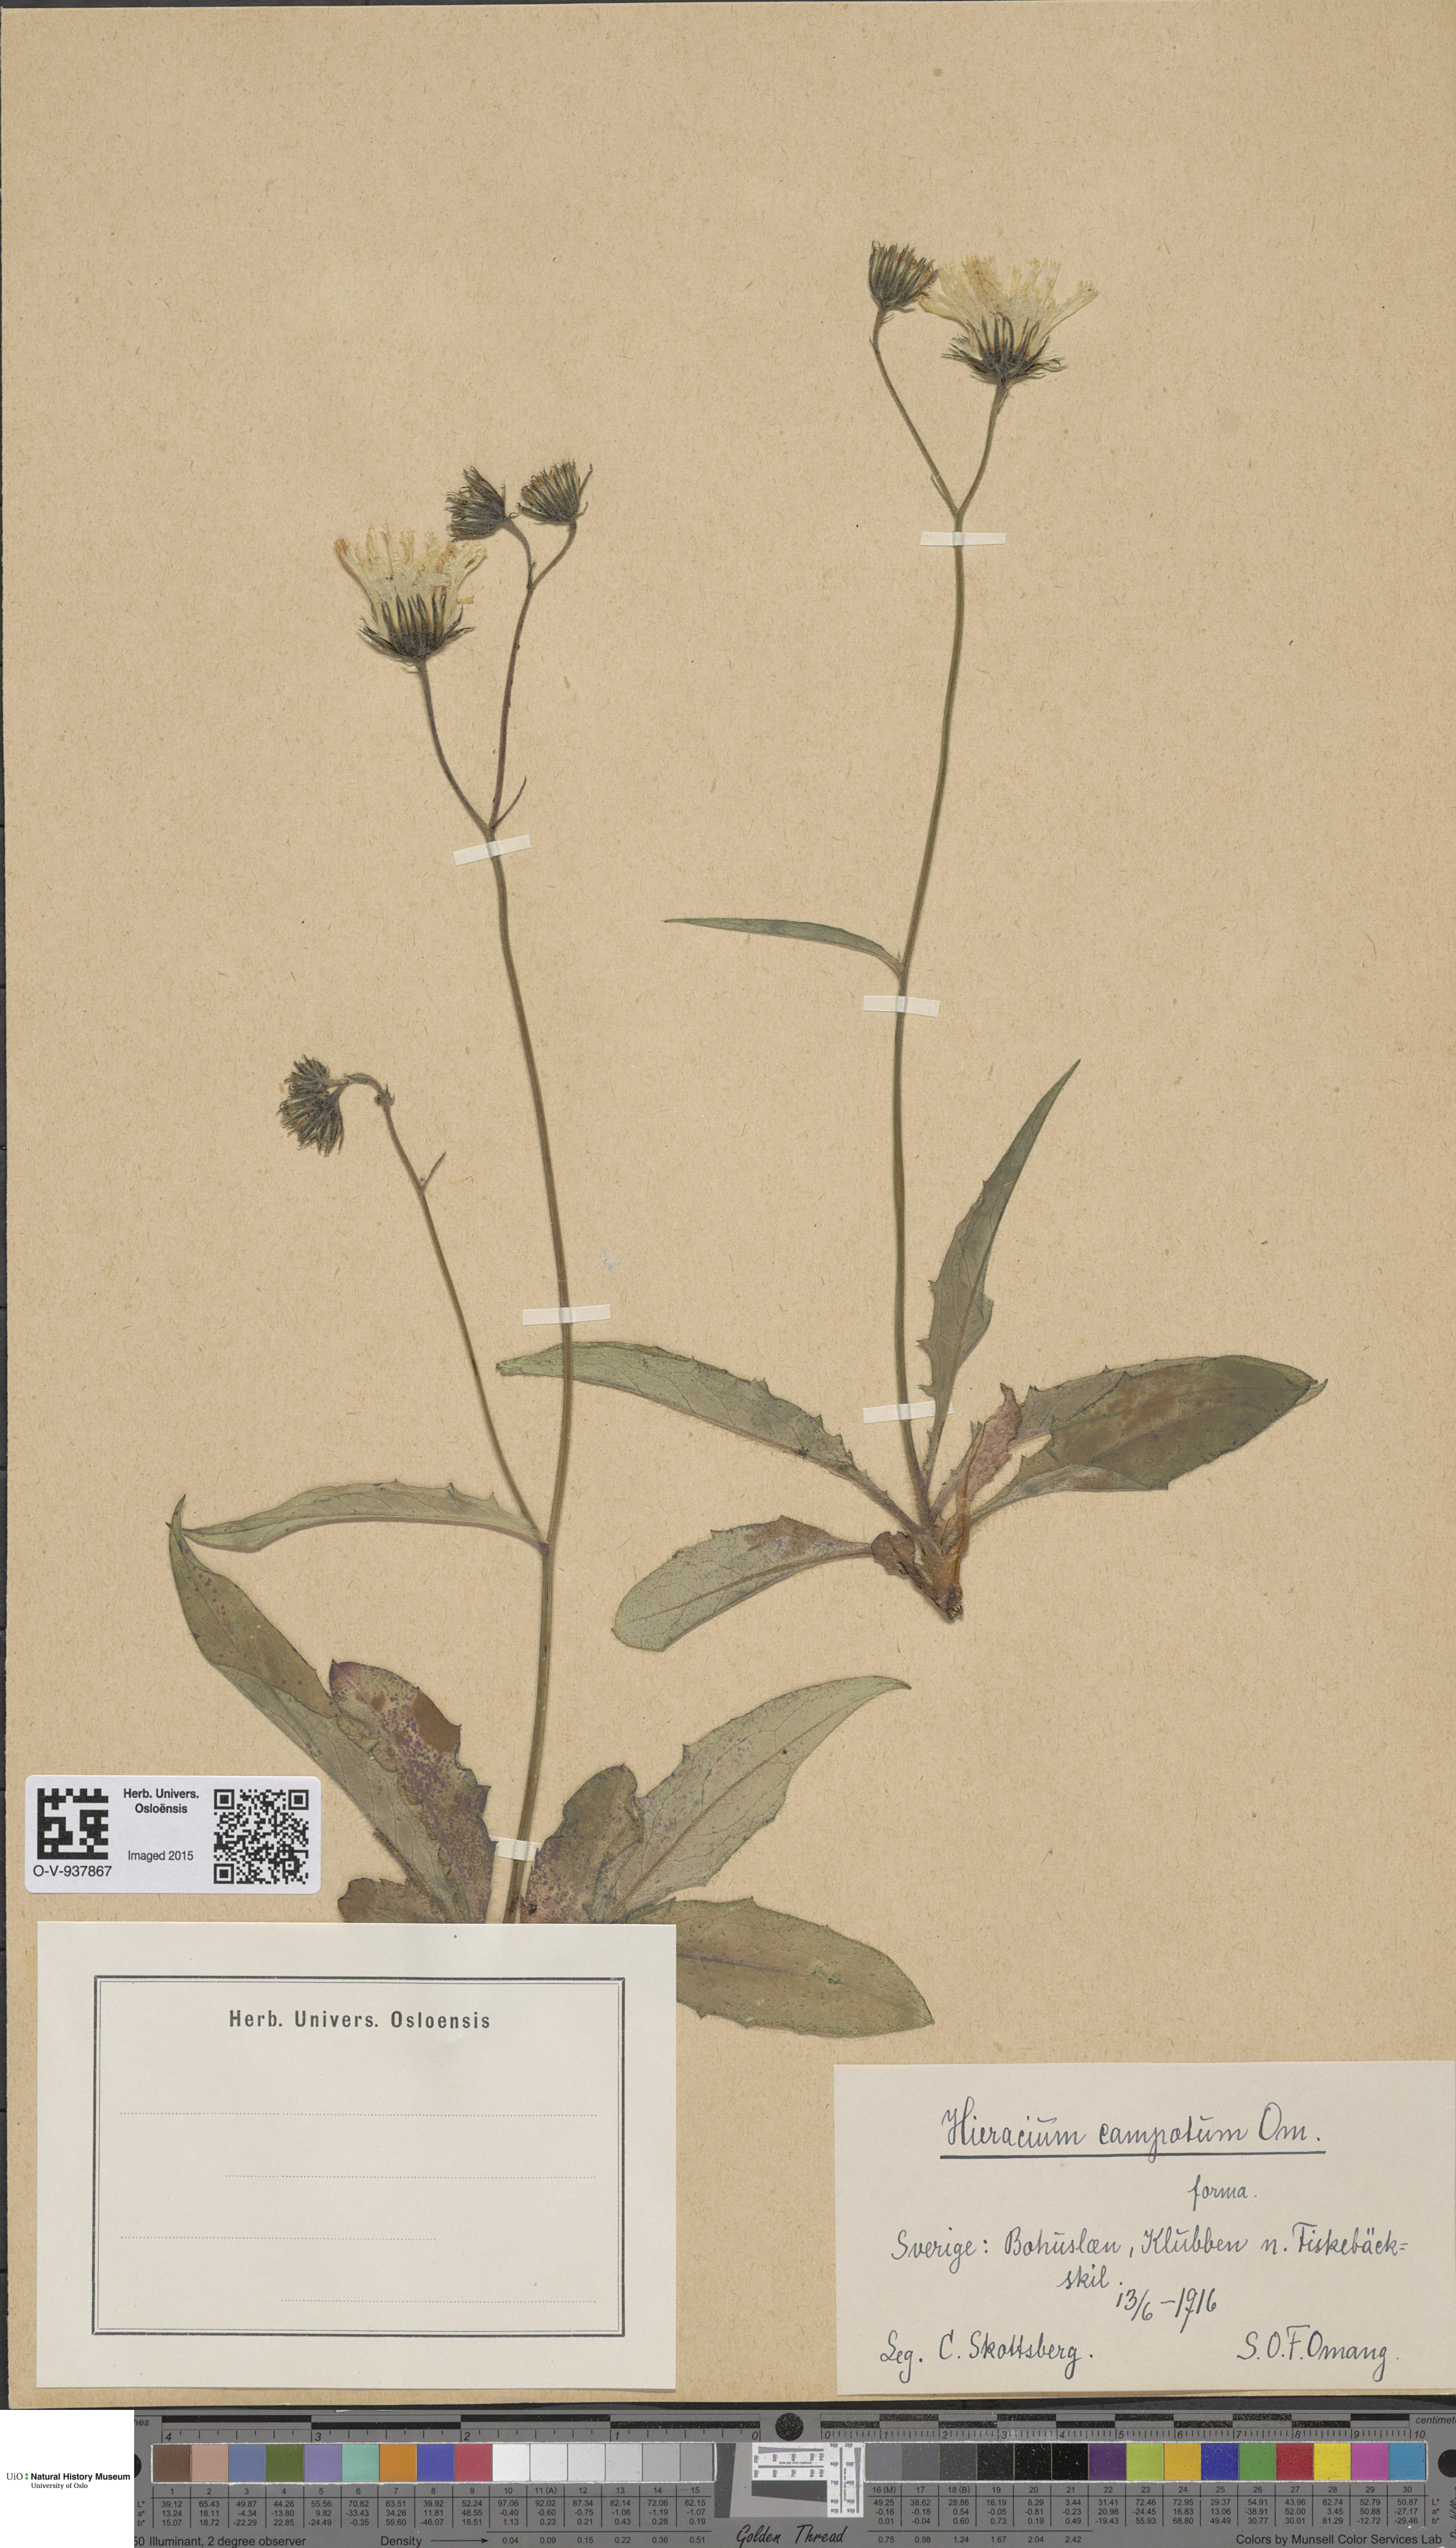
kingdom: Plantae
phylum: Tracheophyta
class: Magnoliopsida
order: Asterales
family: Asteraceae
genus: Hieracium
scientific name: Hieracium
